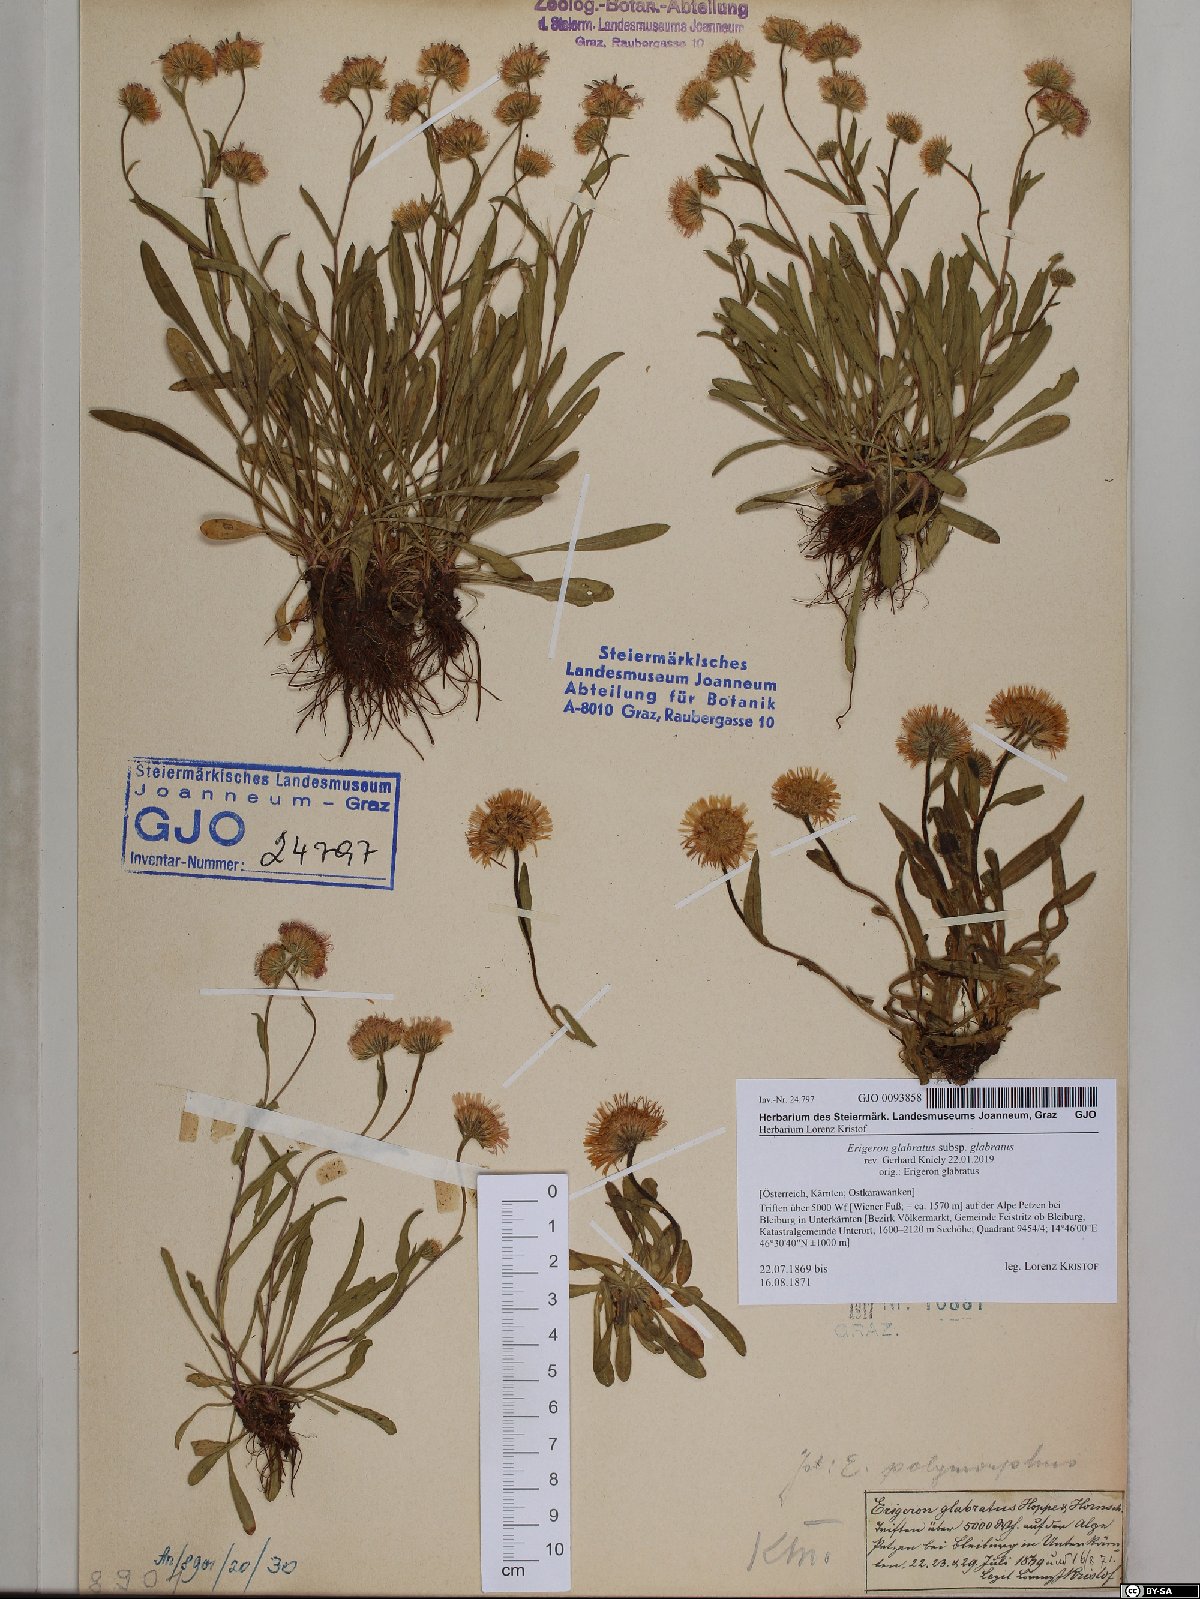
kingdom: Plantae
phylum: Tracheophyta
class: Magnoliopsida
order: Asterales
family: Asteraceae
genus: Erigeron
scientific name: Erigeron glabratus
